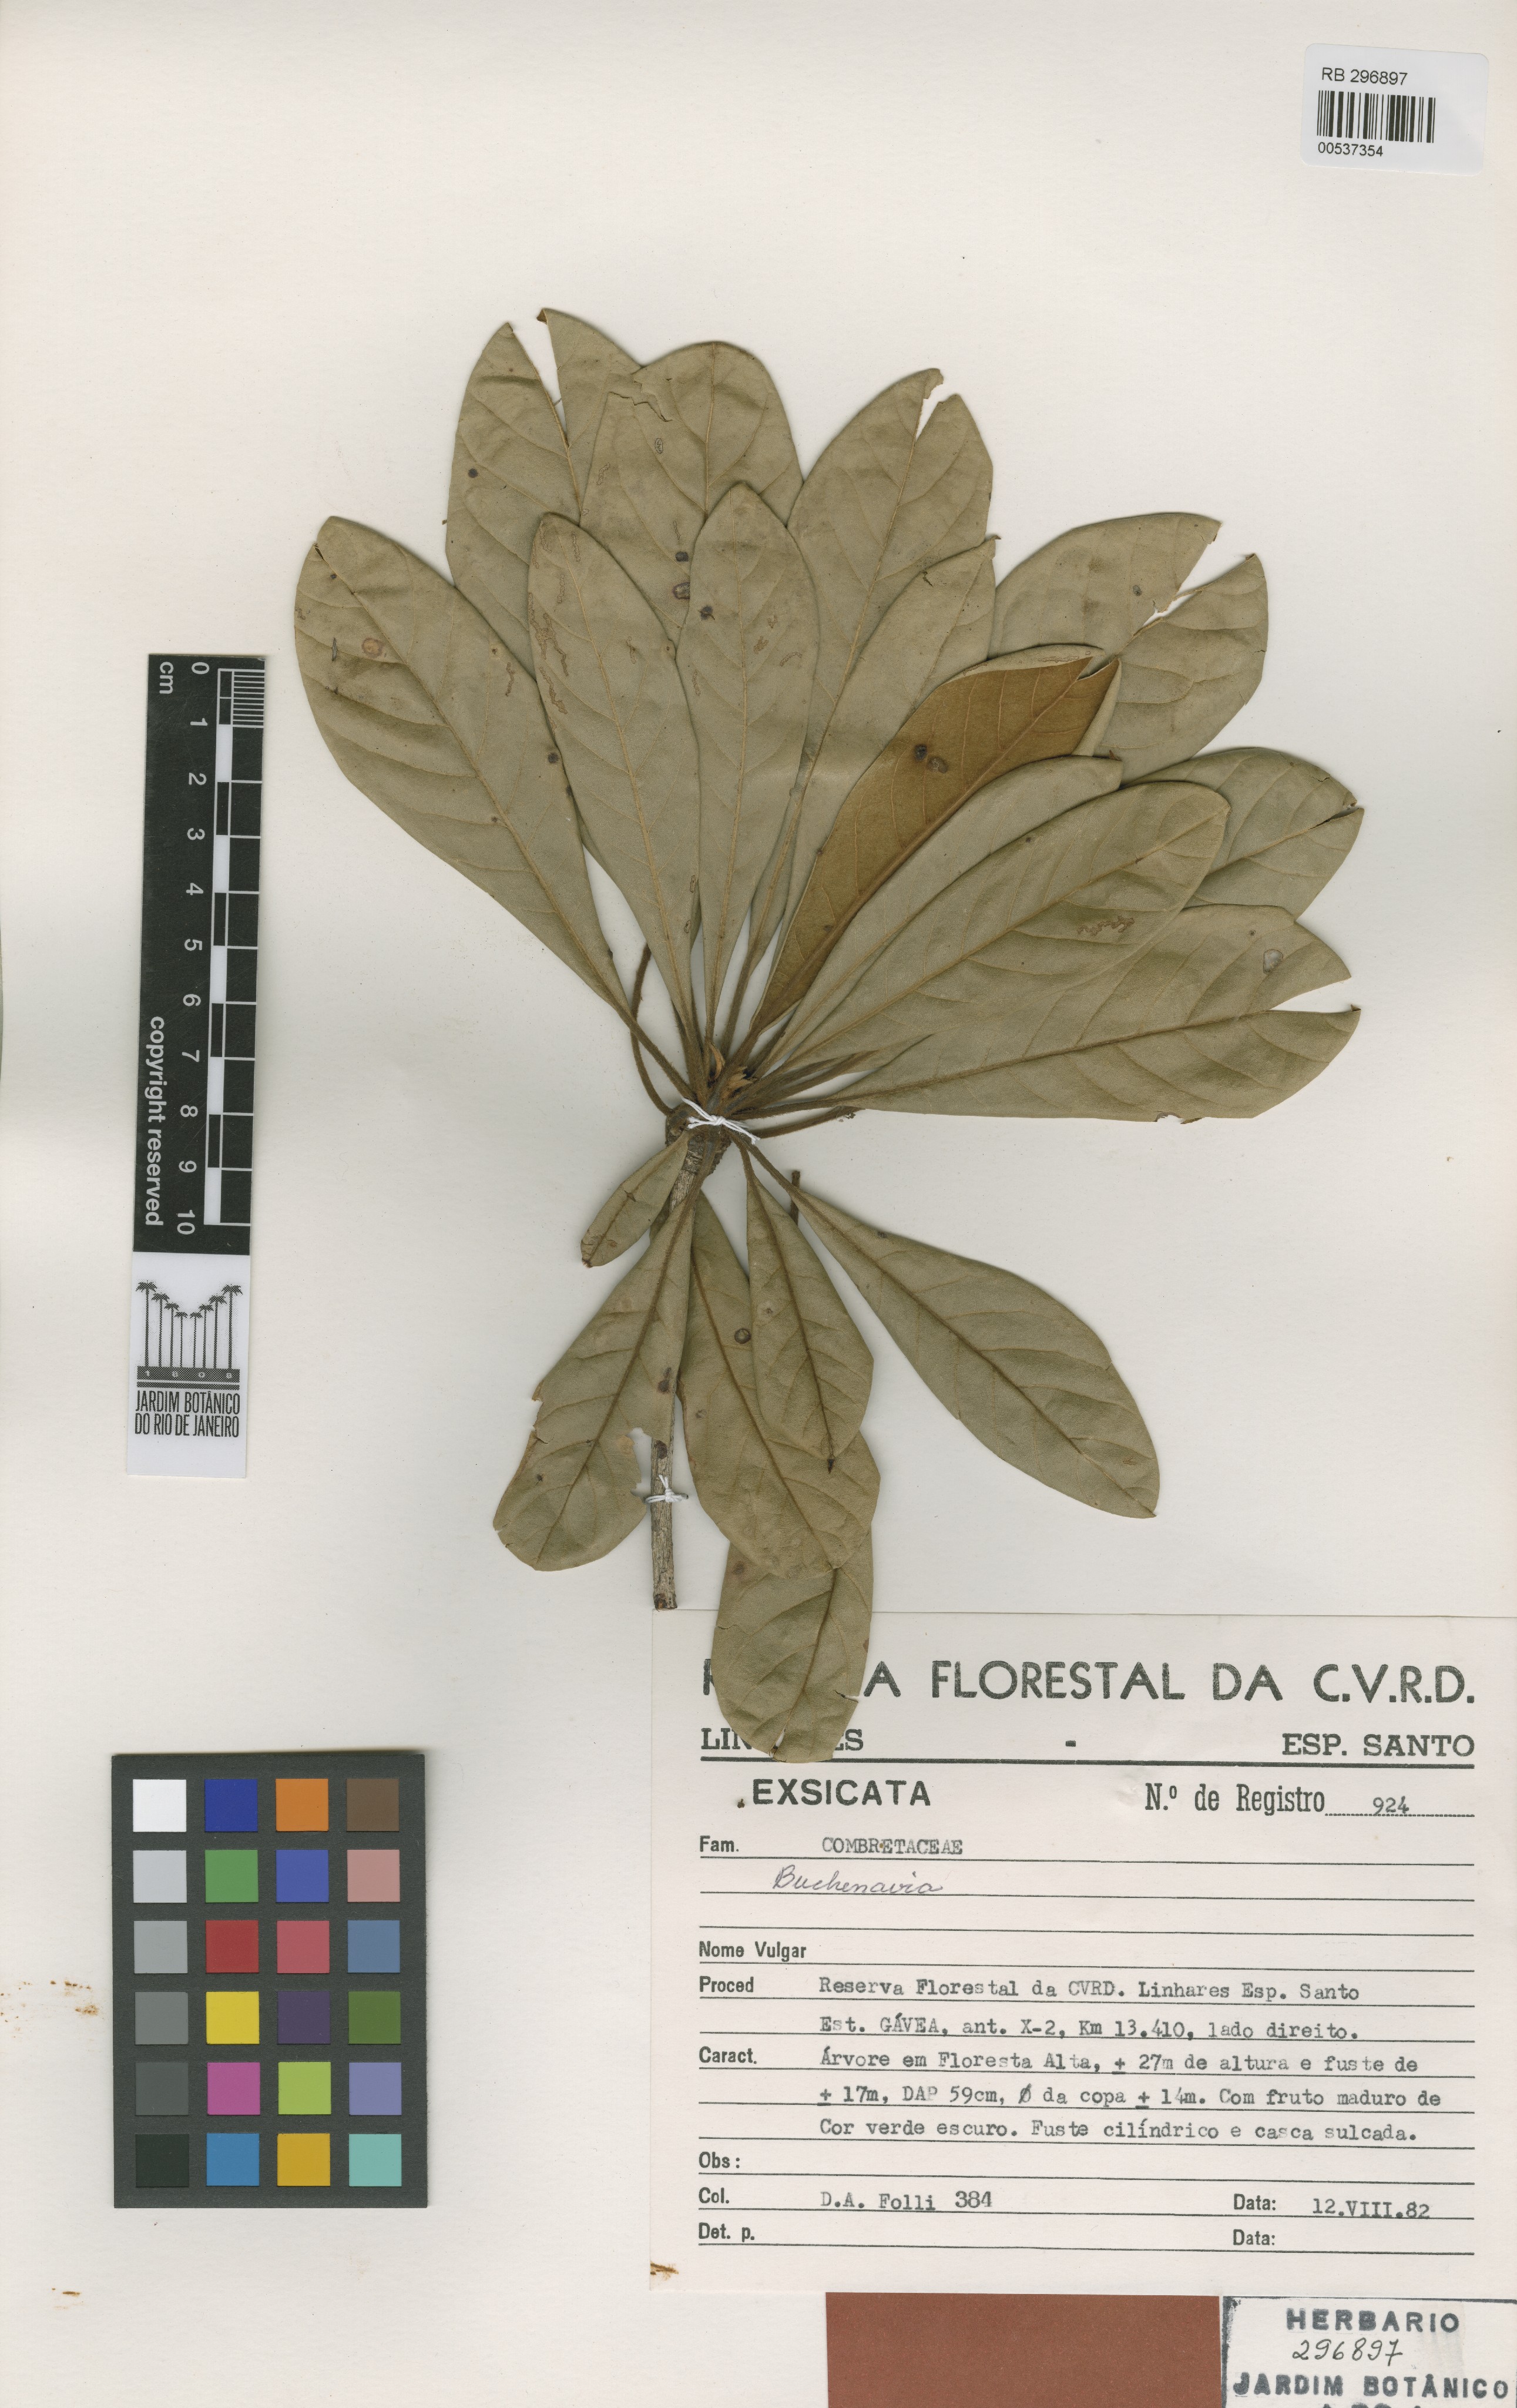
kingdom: Plantae
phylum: Tracheophyta
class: Magnoliopsida
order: Myrtales
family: Combretaceae
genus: Terminalia
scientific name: Terminalia pabstii
